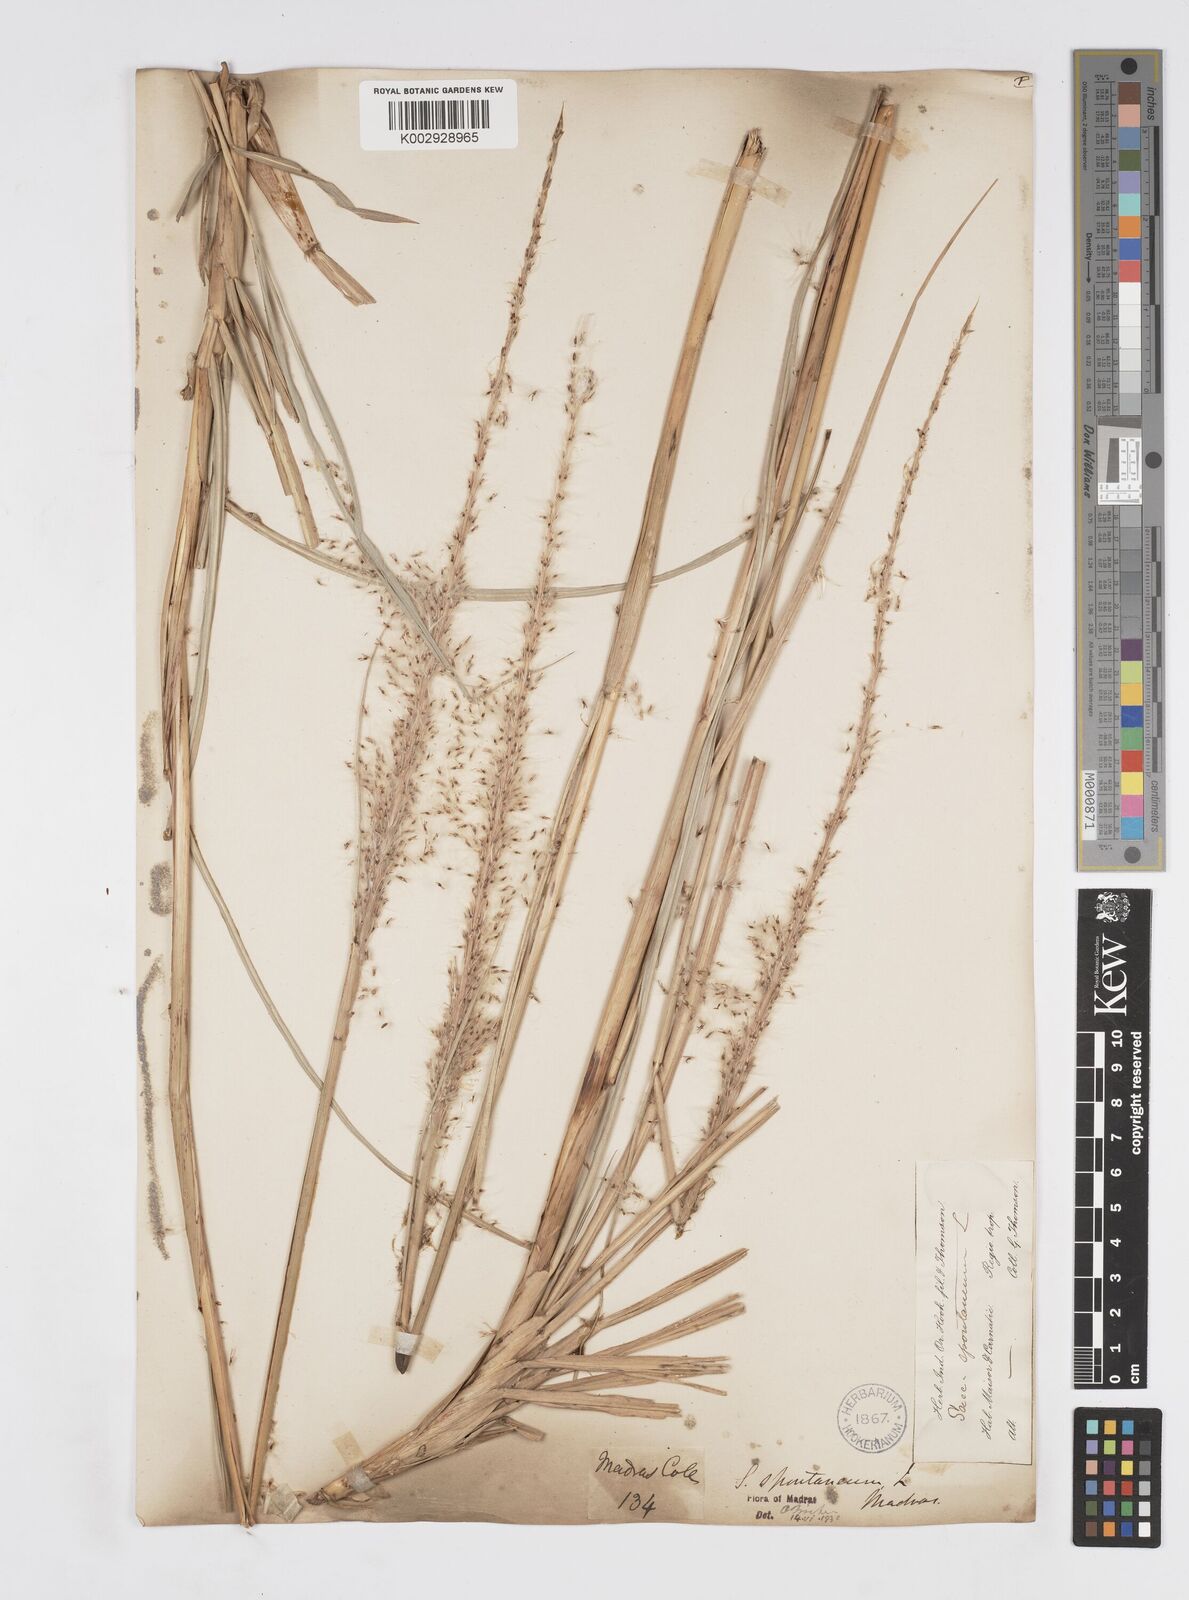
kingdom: Plantae
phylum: Tracheophyta
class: Liliopsida
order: Poales
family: Poaceae
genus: Saccharum
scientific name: Saccharum spontaneum
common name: Wild sugarcane
